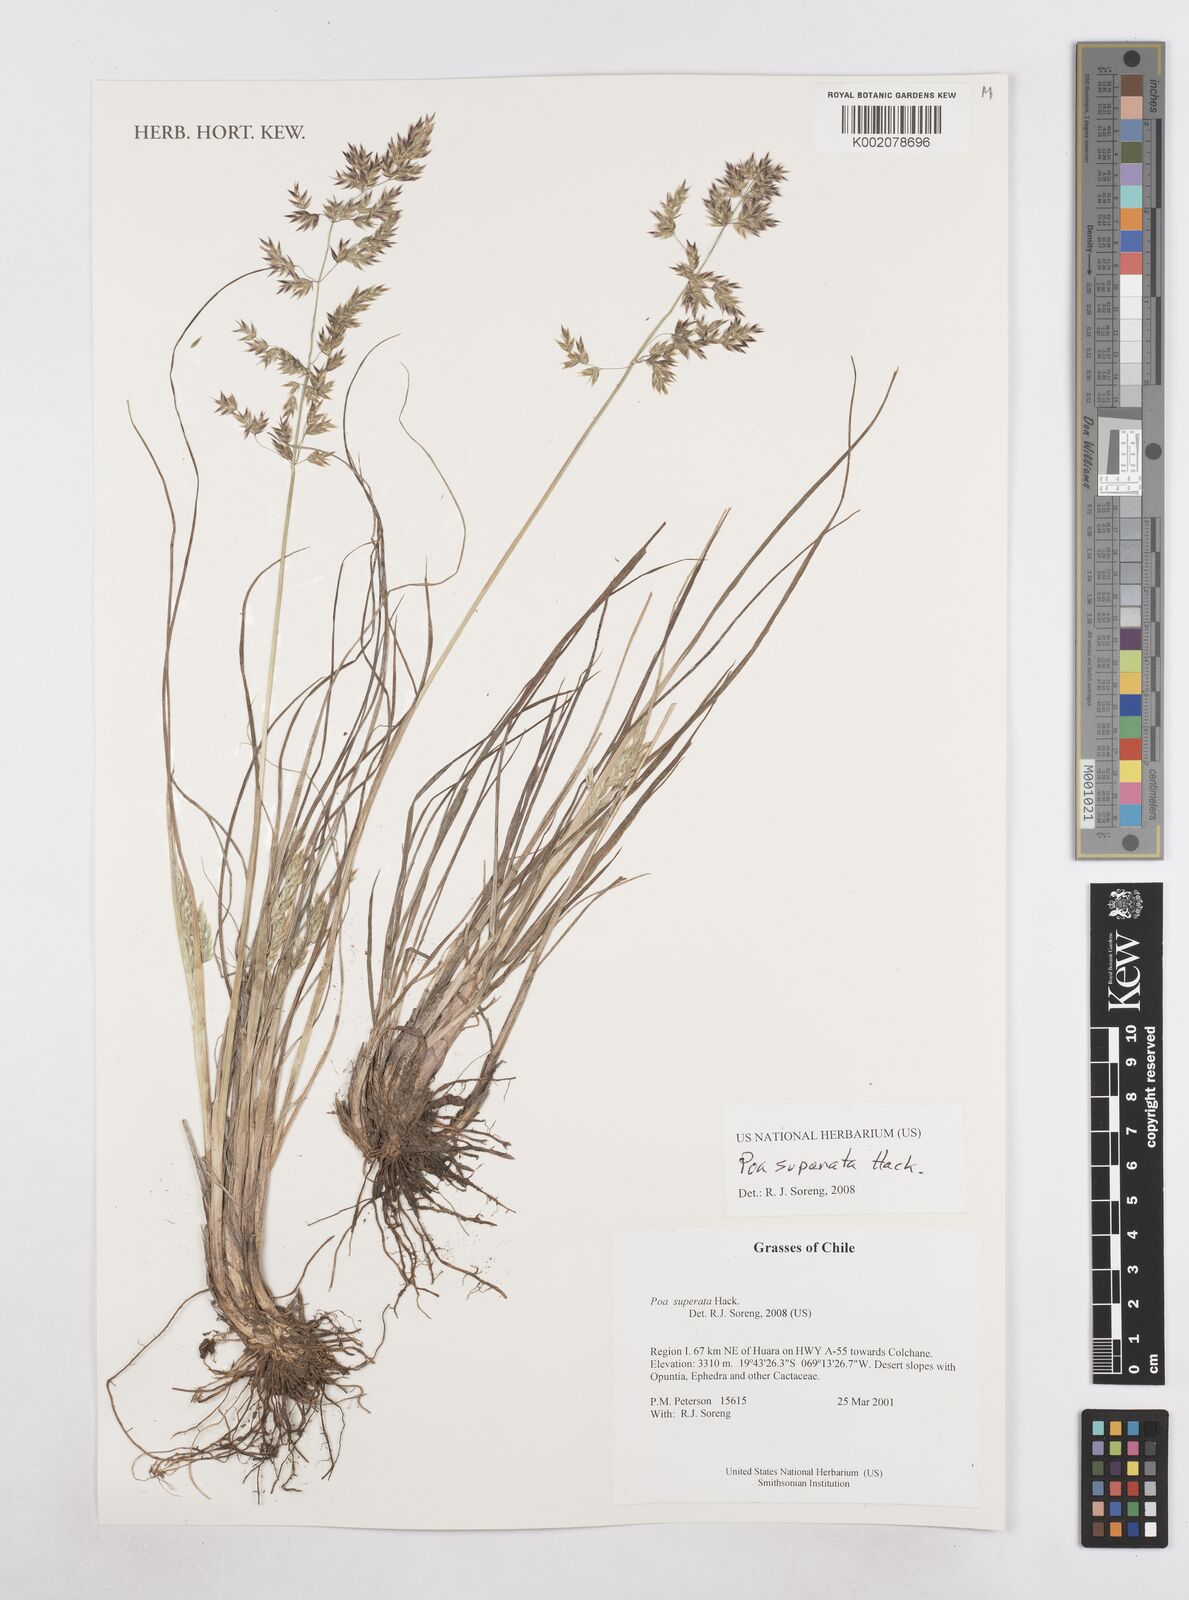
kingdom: Plantae
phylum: Tracheophyta
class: Liliopsida
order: Poales
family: Poaceae
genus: Poa
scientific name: Poa grisebachii
